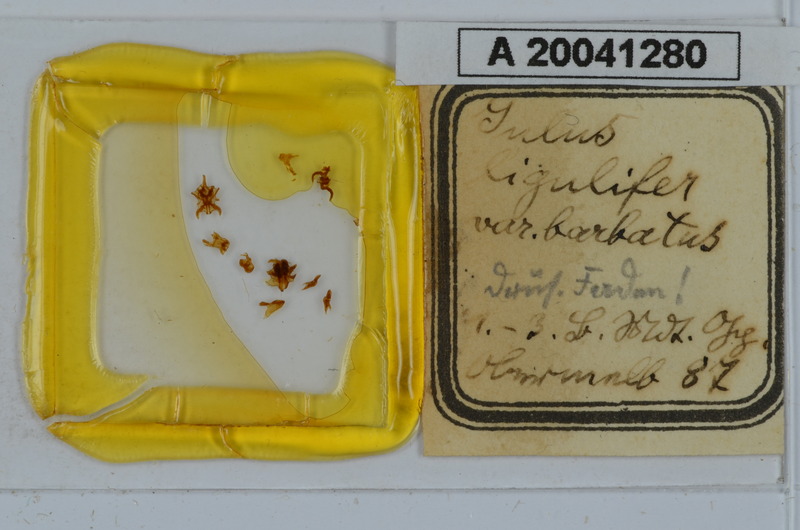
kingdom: Animalia
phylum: Arthropoda
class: Diplopoda
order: Julida
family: Julidae
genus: Julus
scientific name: Julus scandinavius
